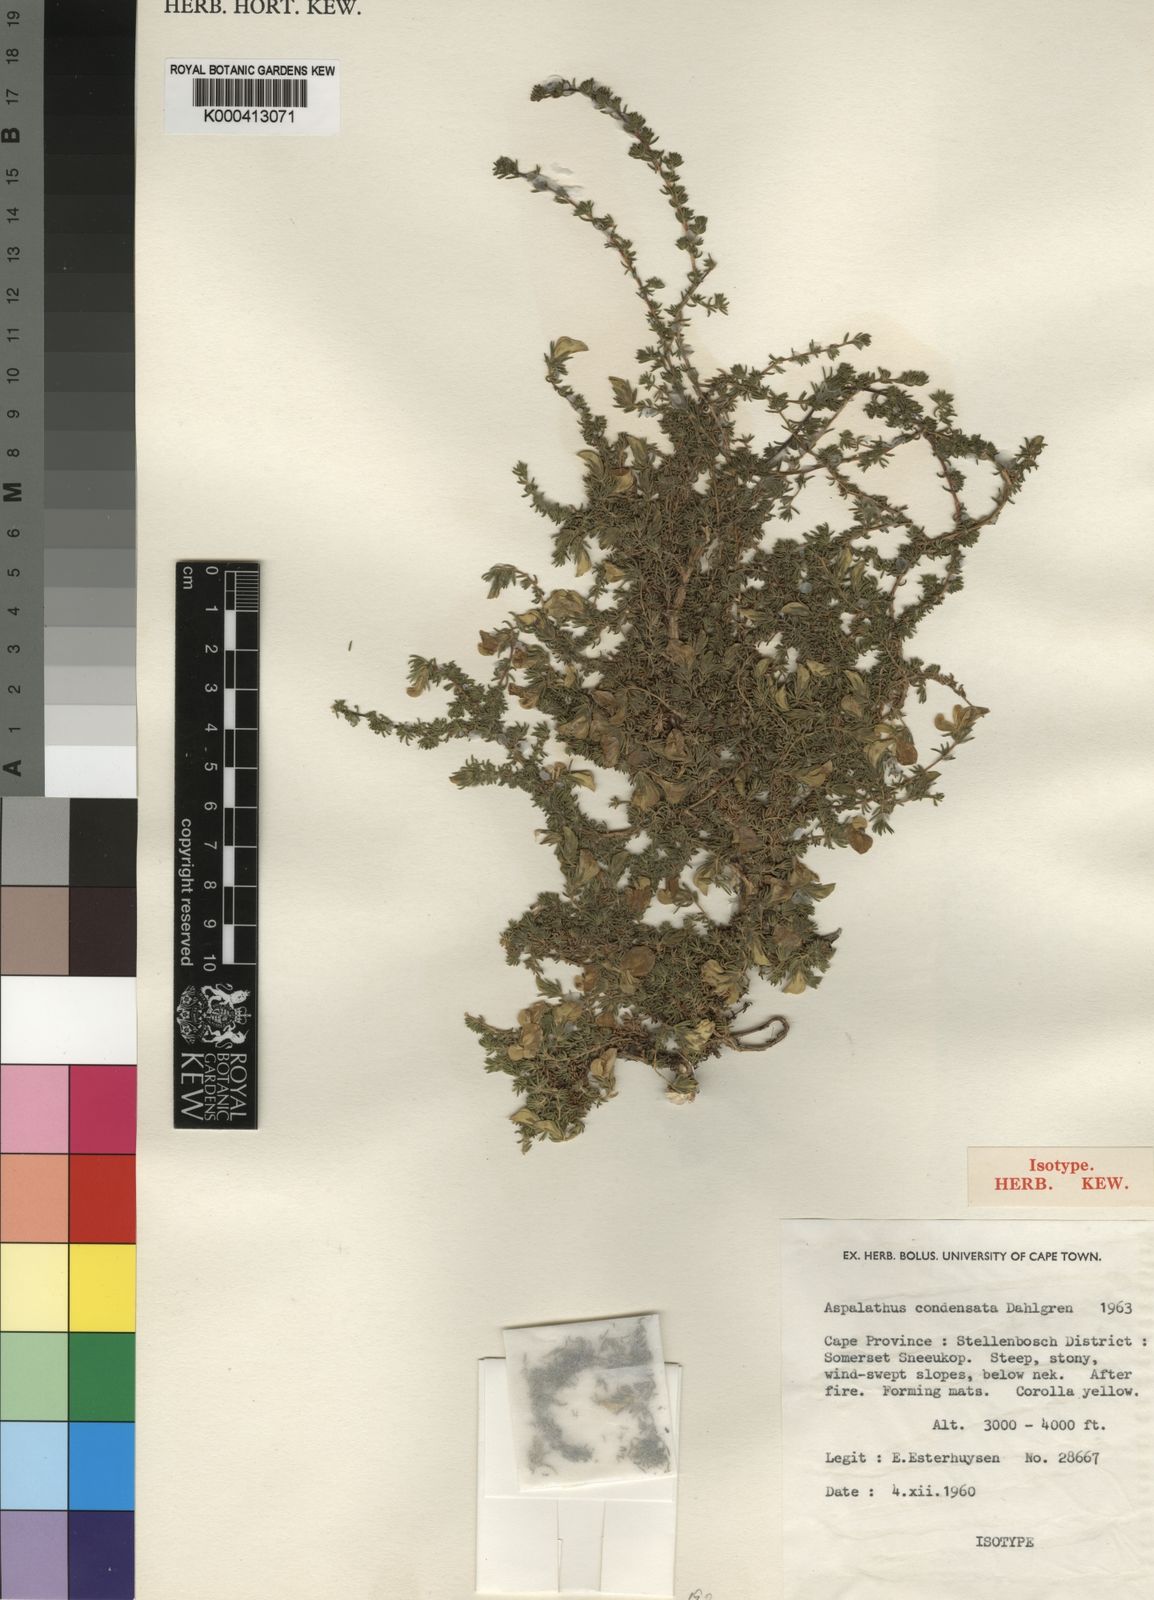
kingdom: Plantae
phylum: Tracheophyta
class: Magnoliopsida
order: Fabales
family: Fabaceae
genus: Aspalathus
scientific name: Aspalathus condensata
